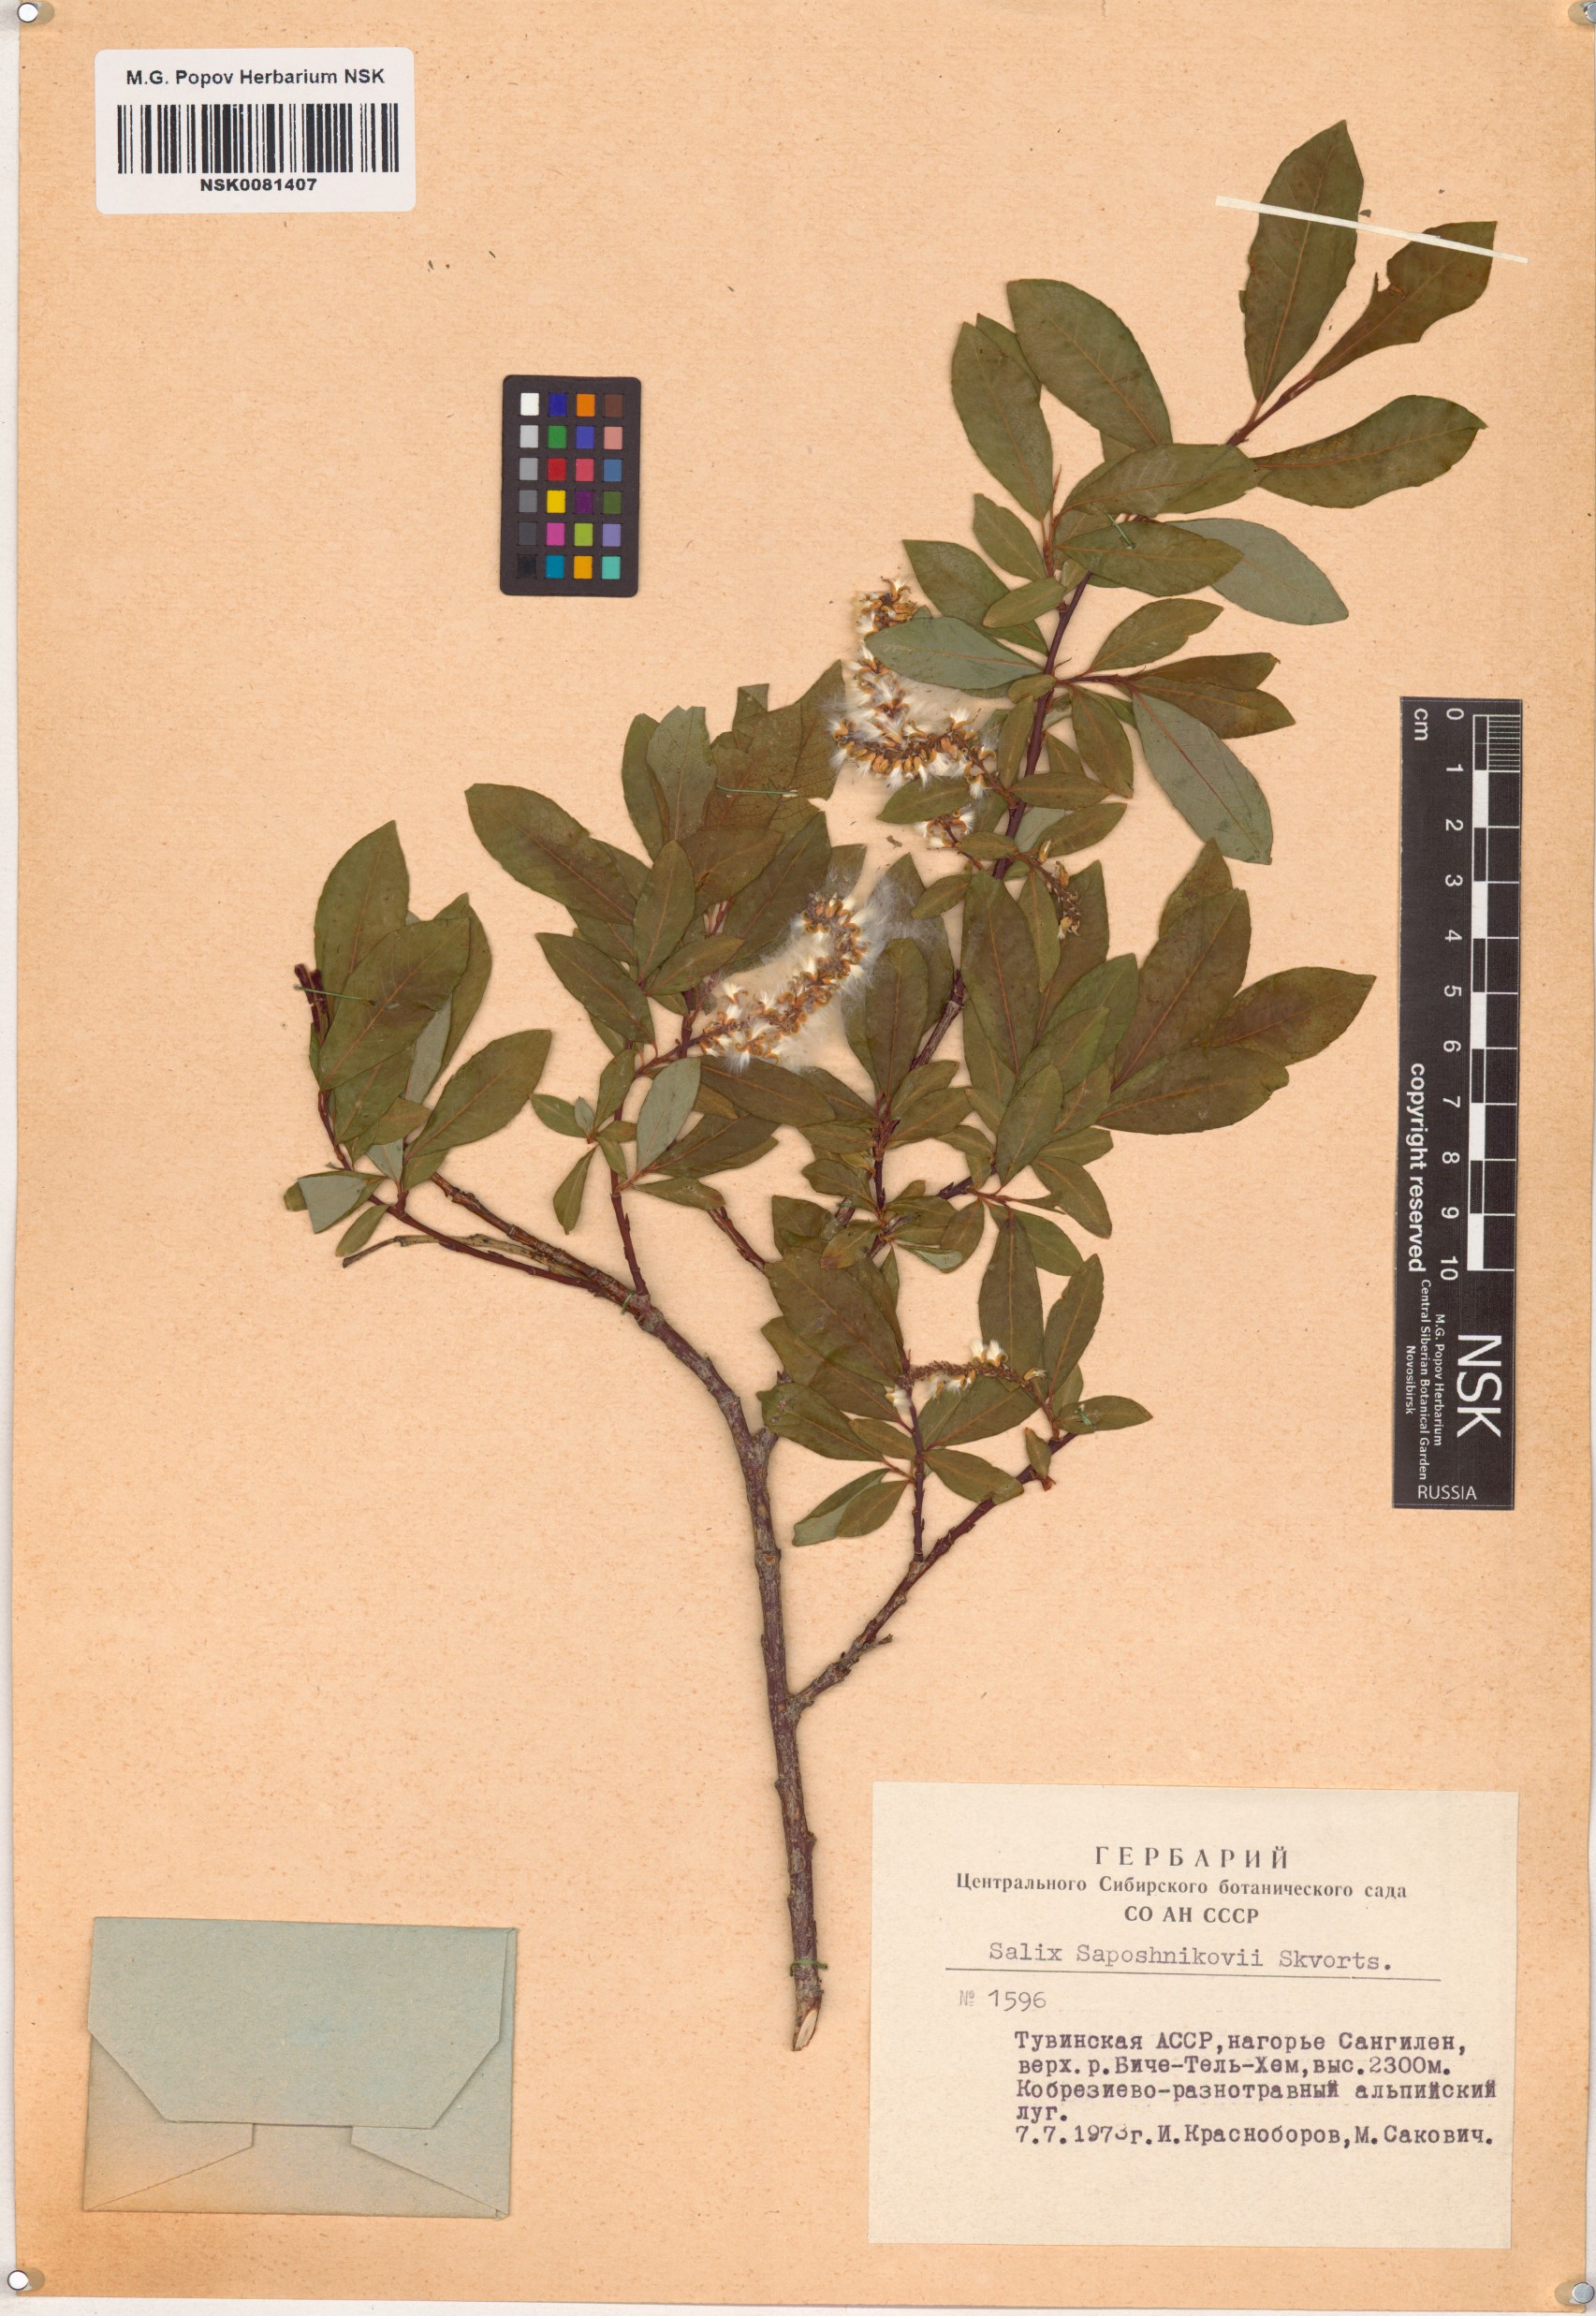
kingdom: Plantae
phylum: Tracheophyta
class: Magnoliopsida
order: Malpighiales
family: Salicaceae
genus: Salix
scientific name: Salix saposhnikovii
